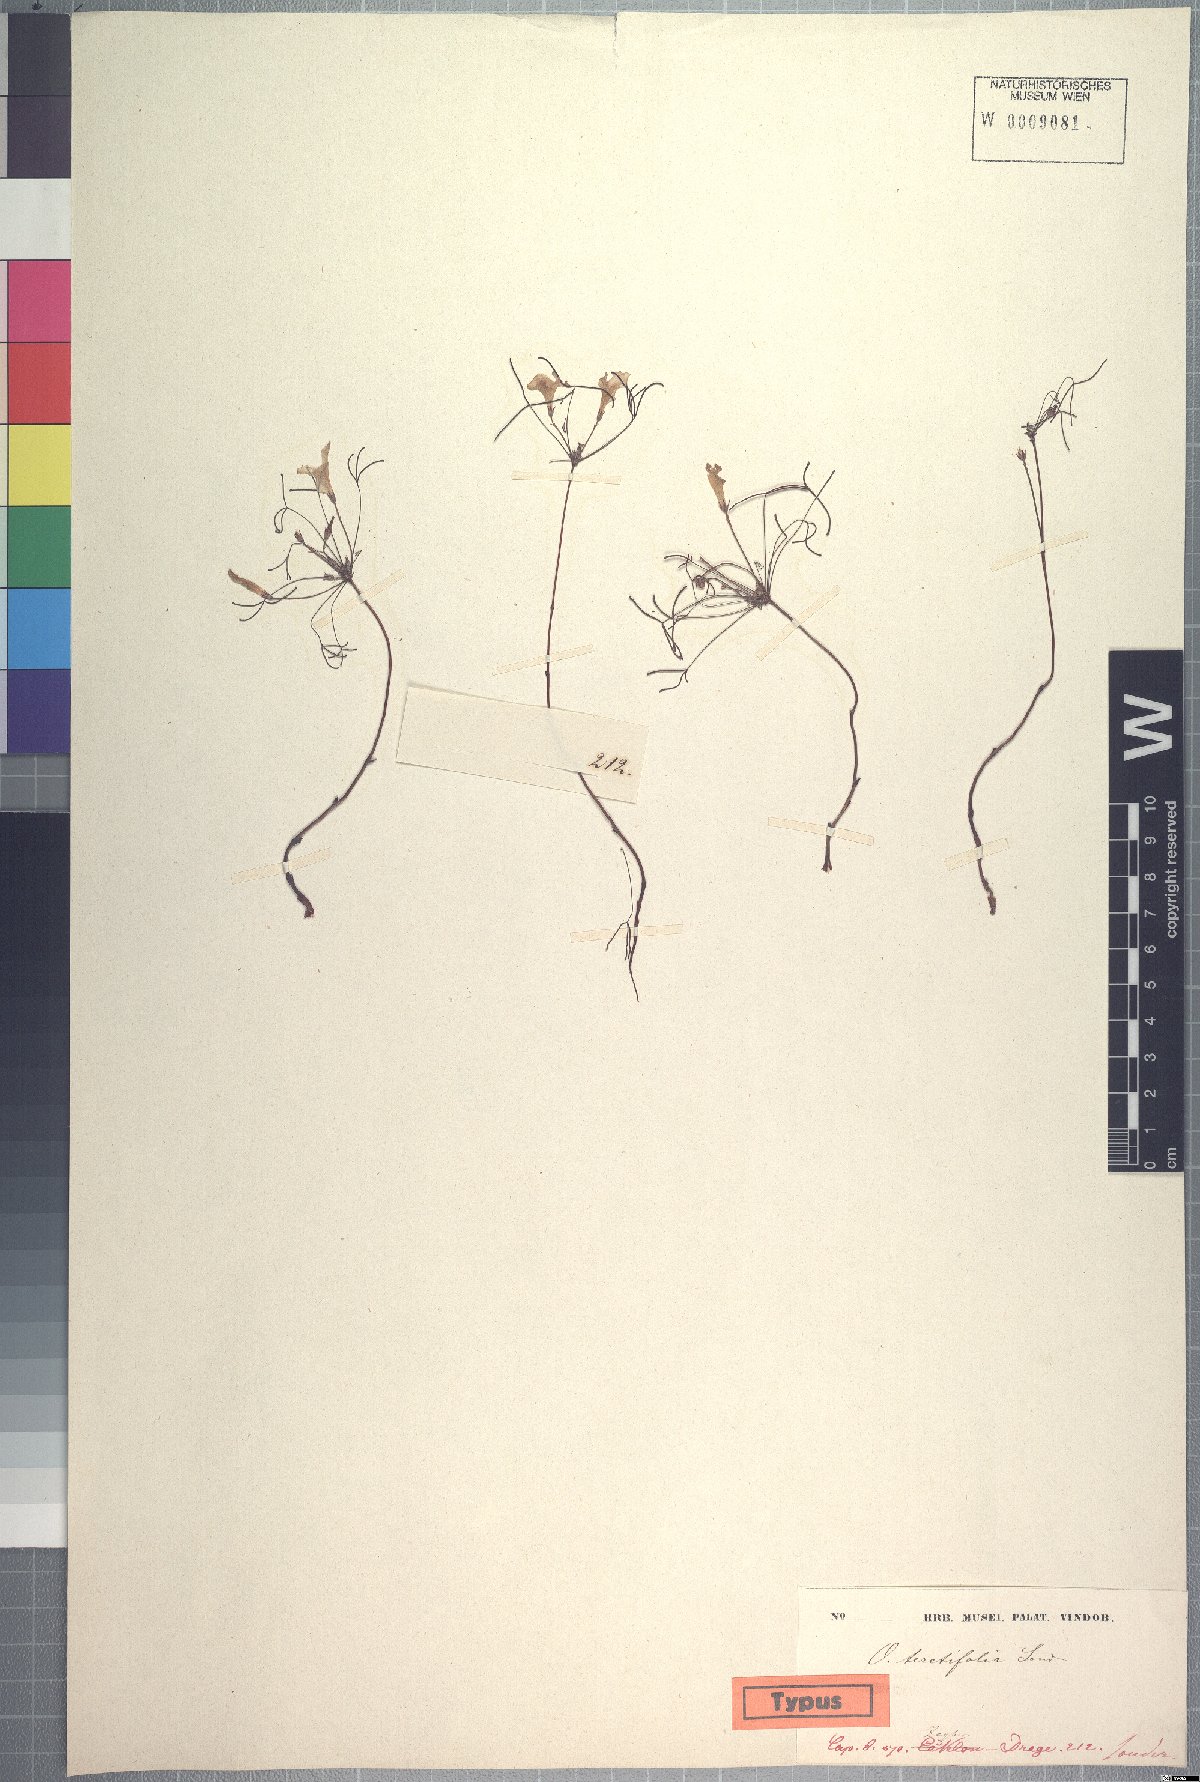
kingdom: Plantae
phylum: Tracheophyta
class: Magnoliopsida
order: Oxalidales
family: Oxalidaceae
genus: Oxalis
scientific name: Oxalis gracilis
